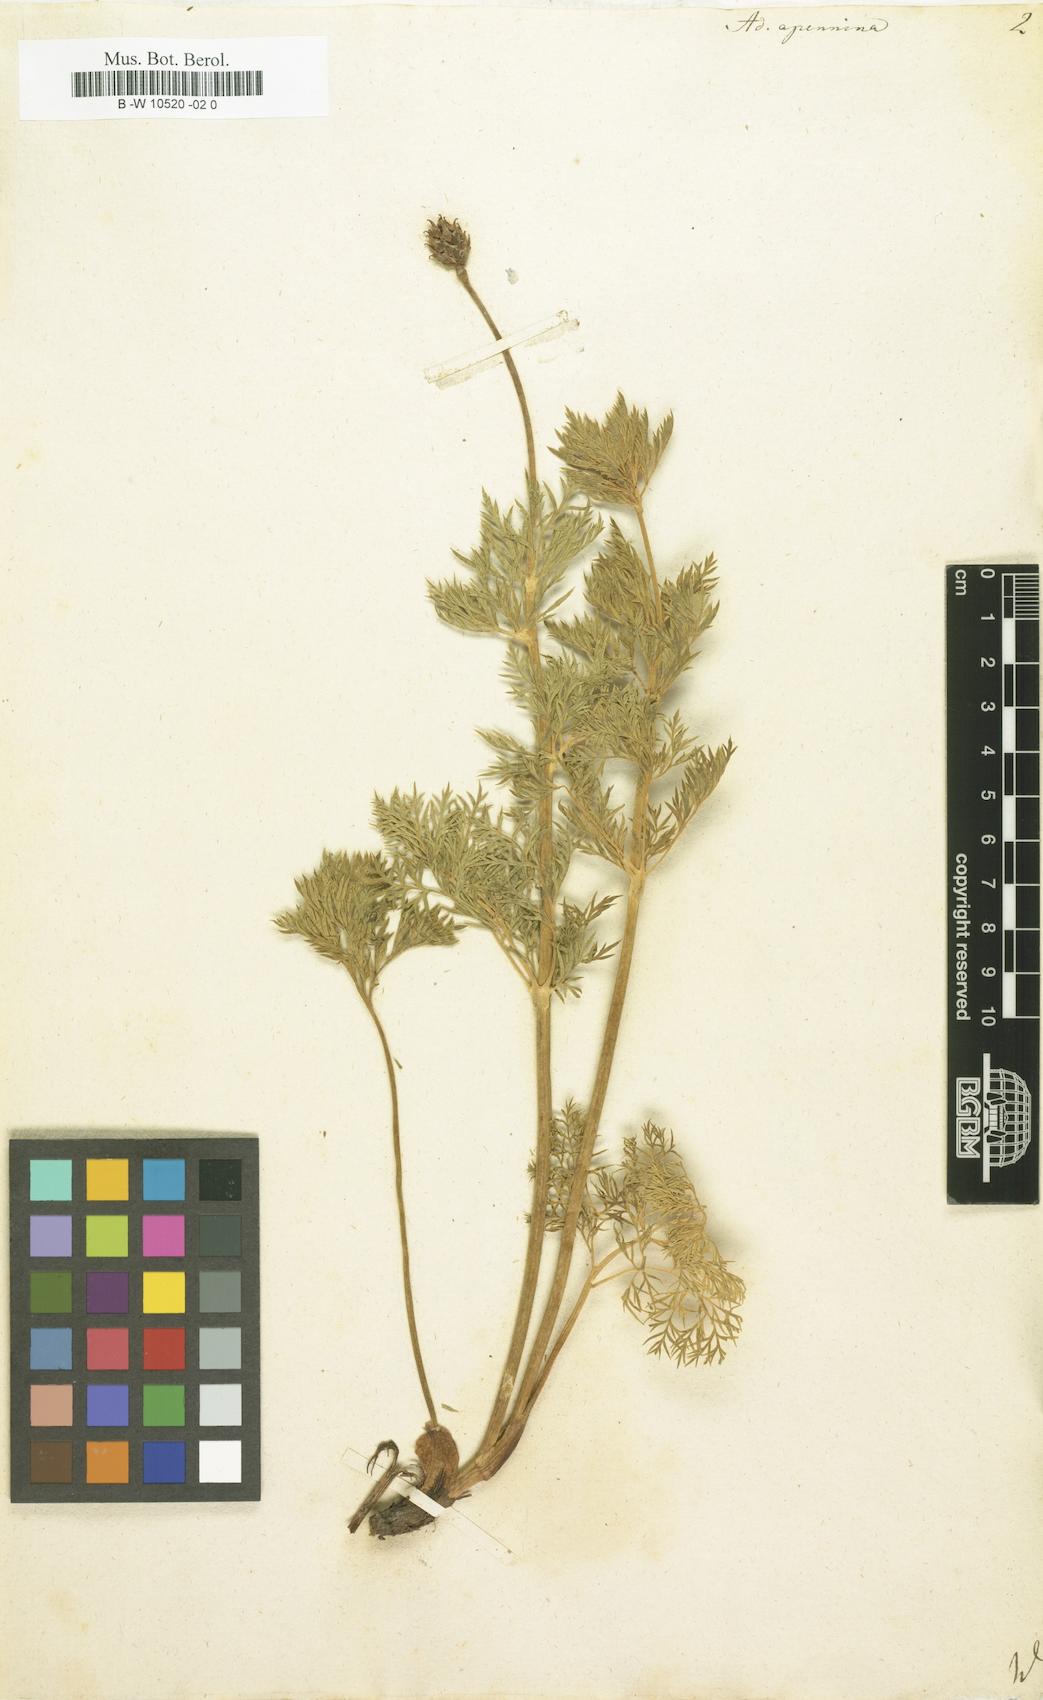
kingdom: Plantae
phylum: Tracheophyta
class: Magnoliopsida
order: Ranunculales
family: Ranunculaceae
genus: Adonis
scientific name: Adonis vernalis
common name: Yellow pheasants-eye
